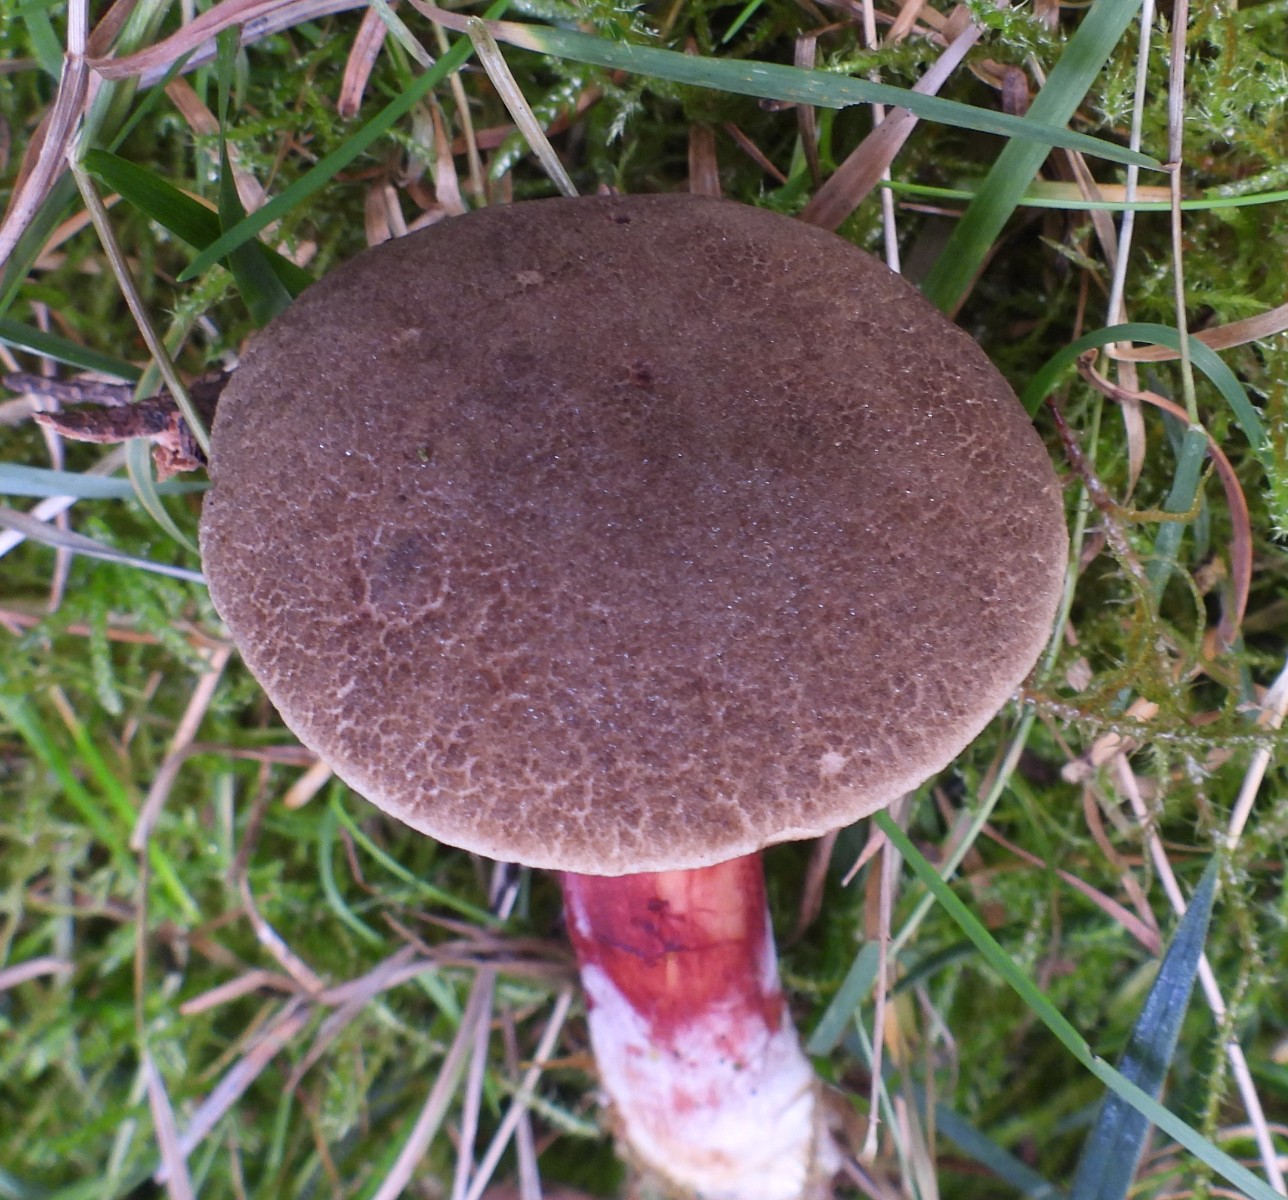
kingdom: Fungi
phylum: Basidiomycota
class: Agaricomycetes
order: Boletales
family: Boletaceae
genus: Xerocomellus
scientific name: Xerocomellus chrysenteron
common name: rødsprukken rørhat
